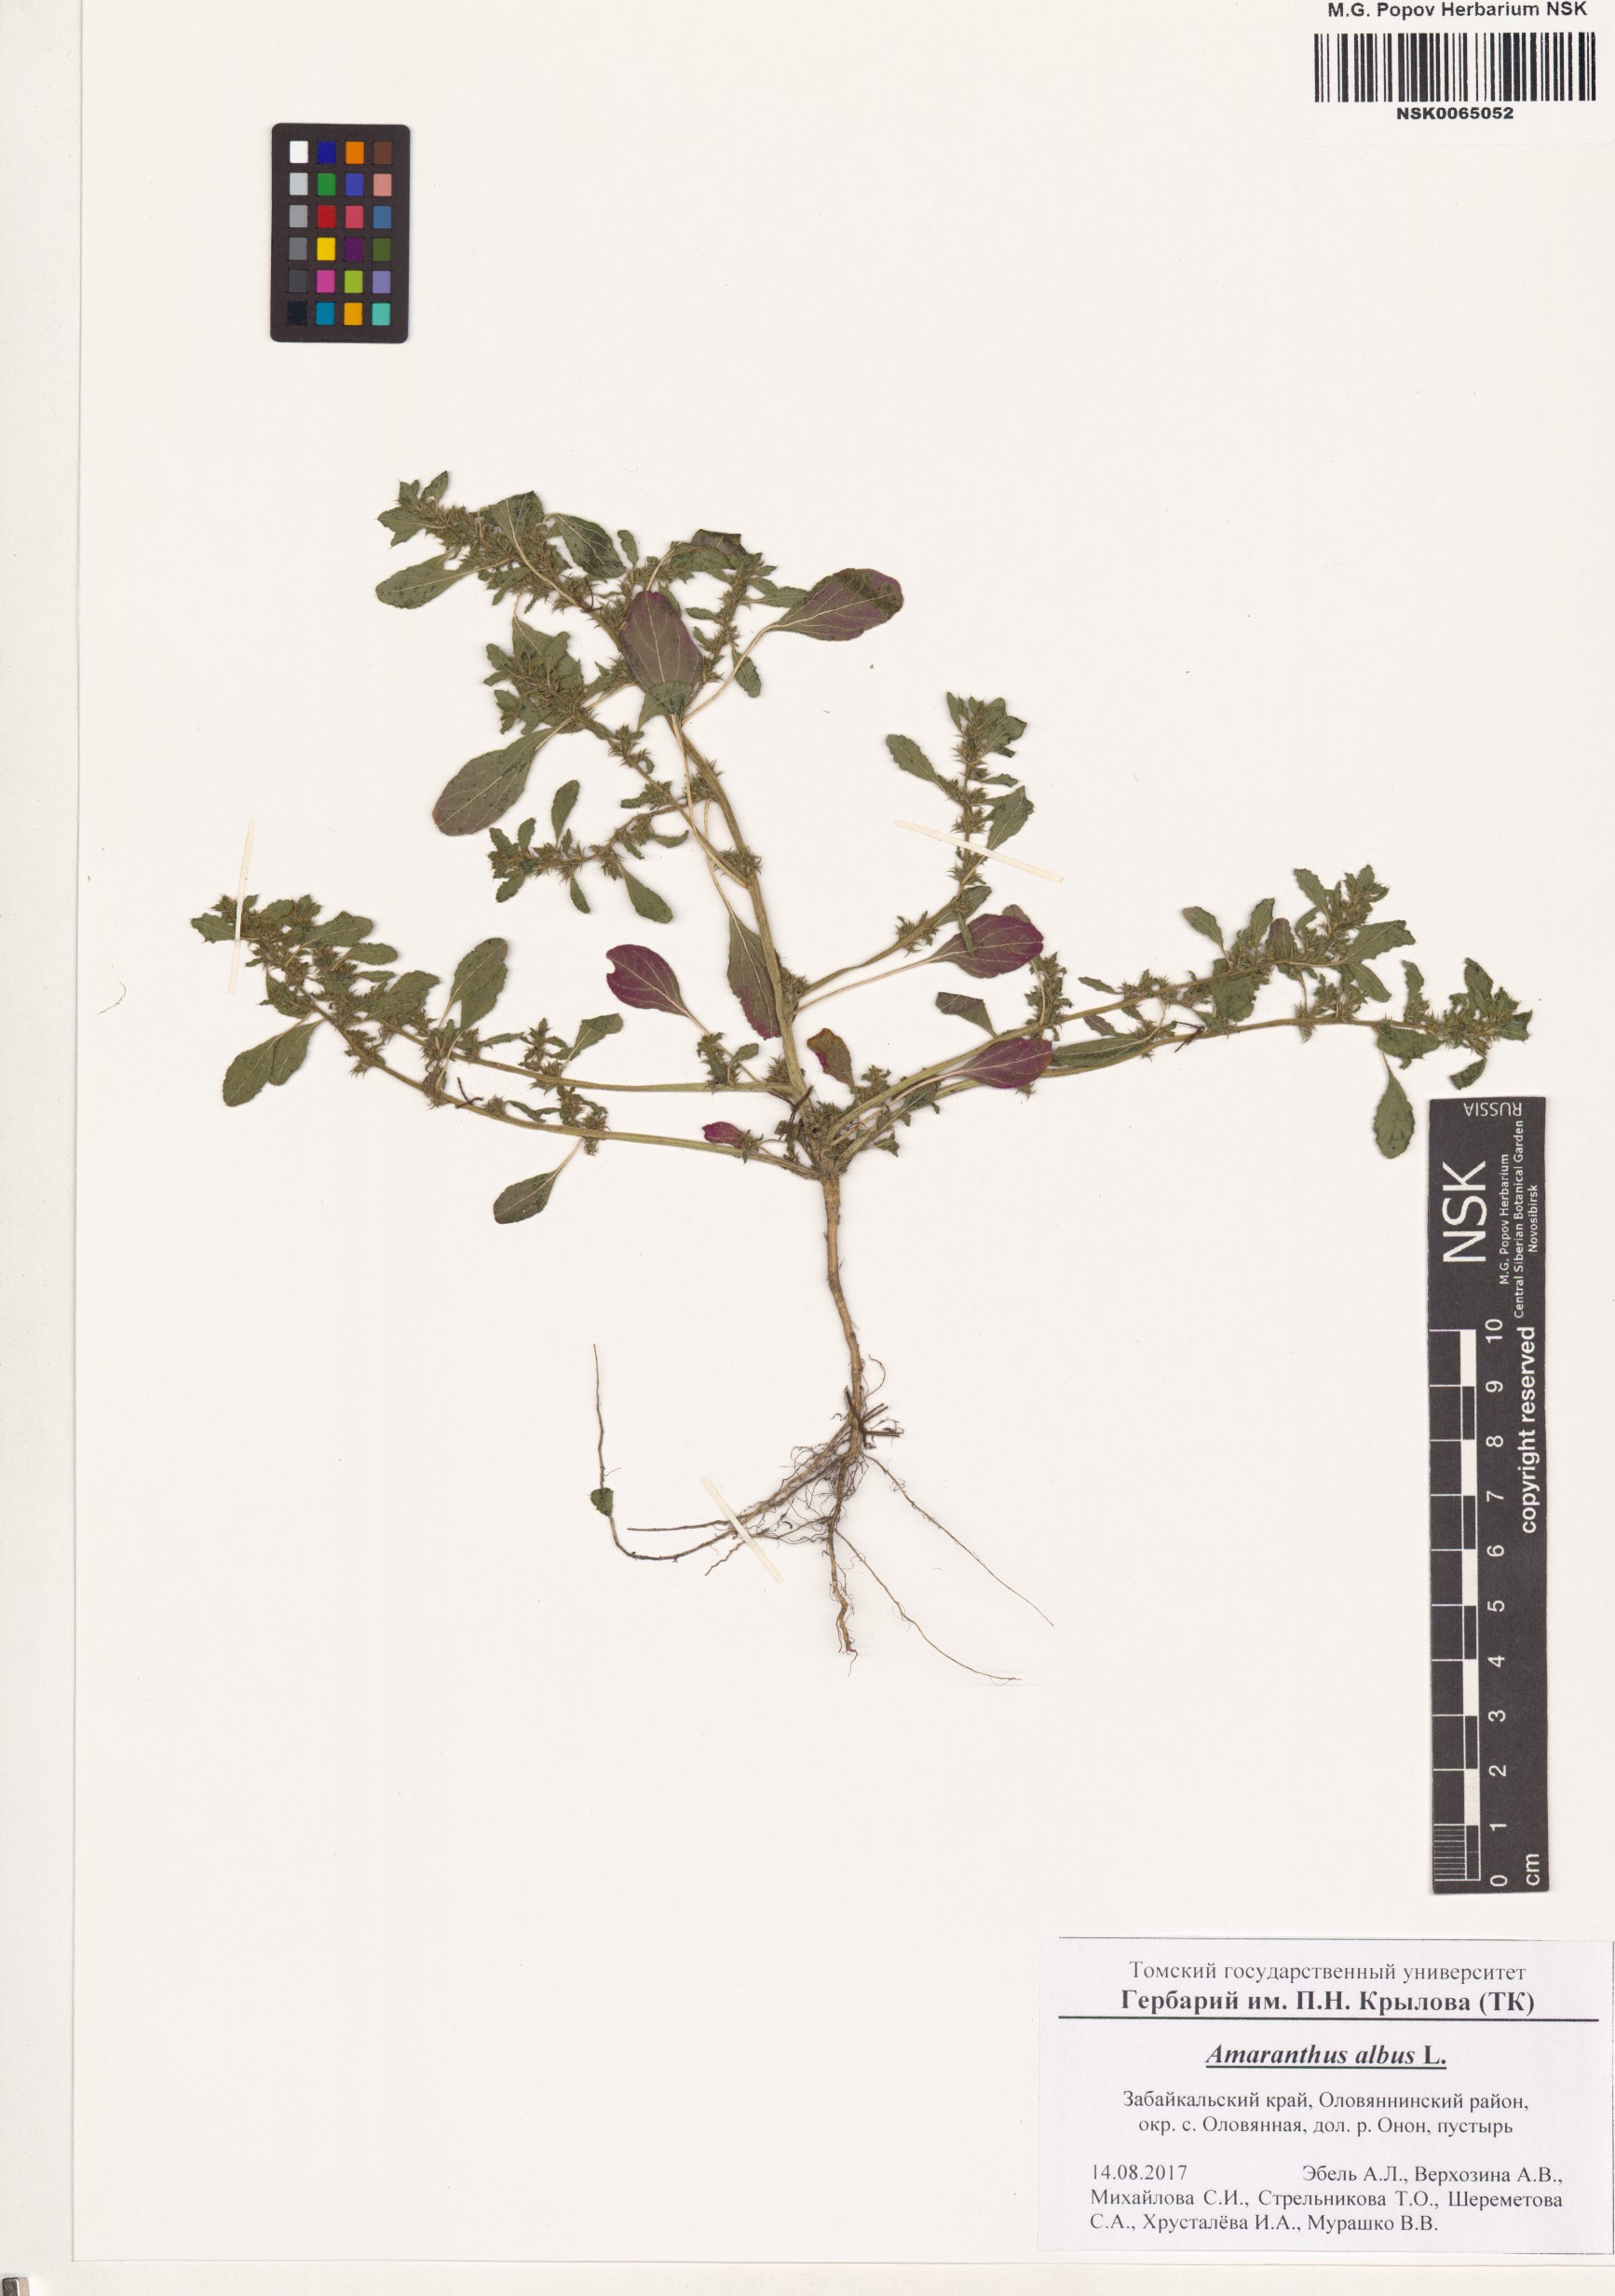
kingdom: Plantae
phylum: Tracheophyta
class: Magnoliopsida
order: Caryophyllales
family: Amaranthaceae
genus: Amaranthus
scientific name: Amaranthus albus
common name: White pigweed
